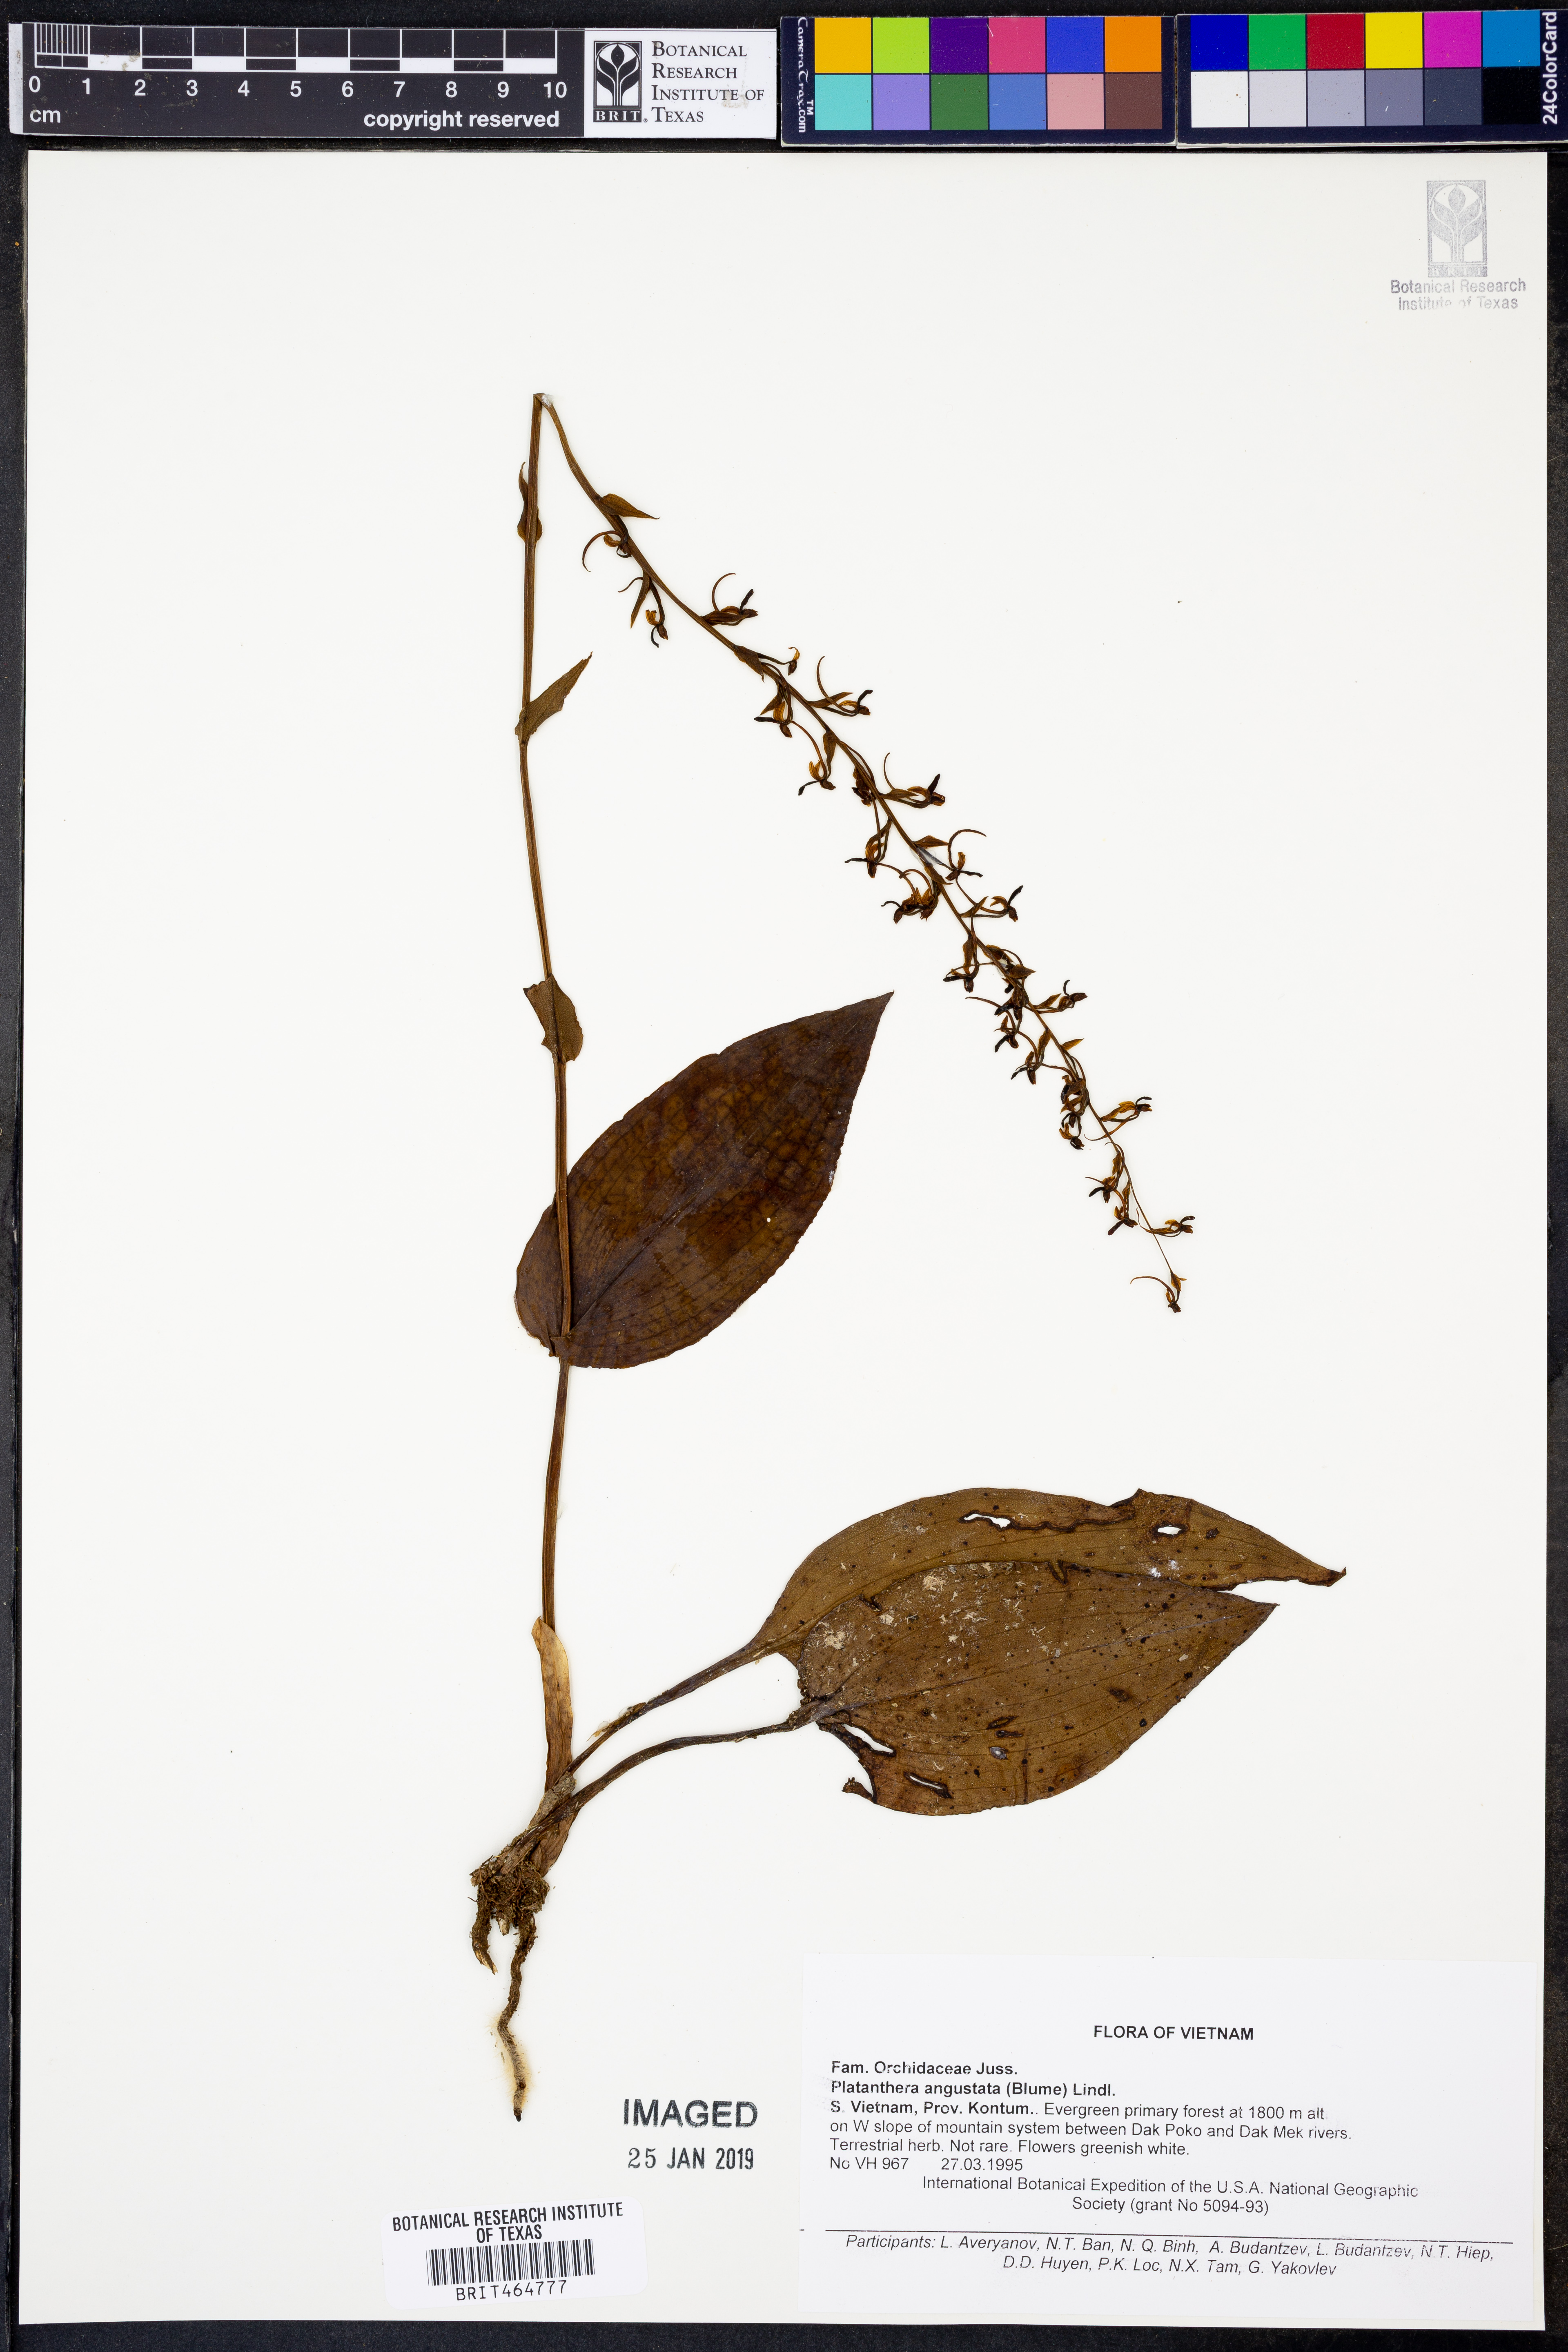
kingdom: Plantae
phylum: Tracheophyta
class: Liliopsida
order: Asparagales
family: Orchidaceae
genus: Platanthera
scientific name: Platanthera angustata
